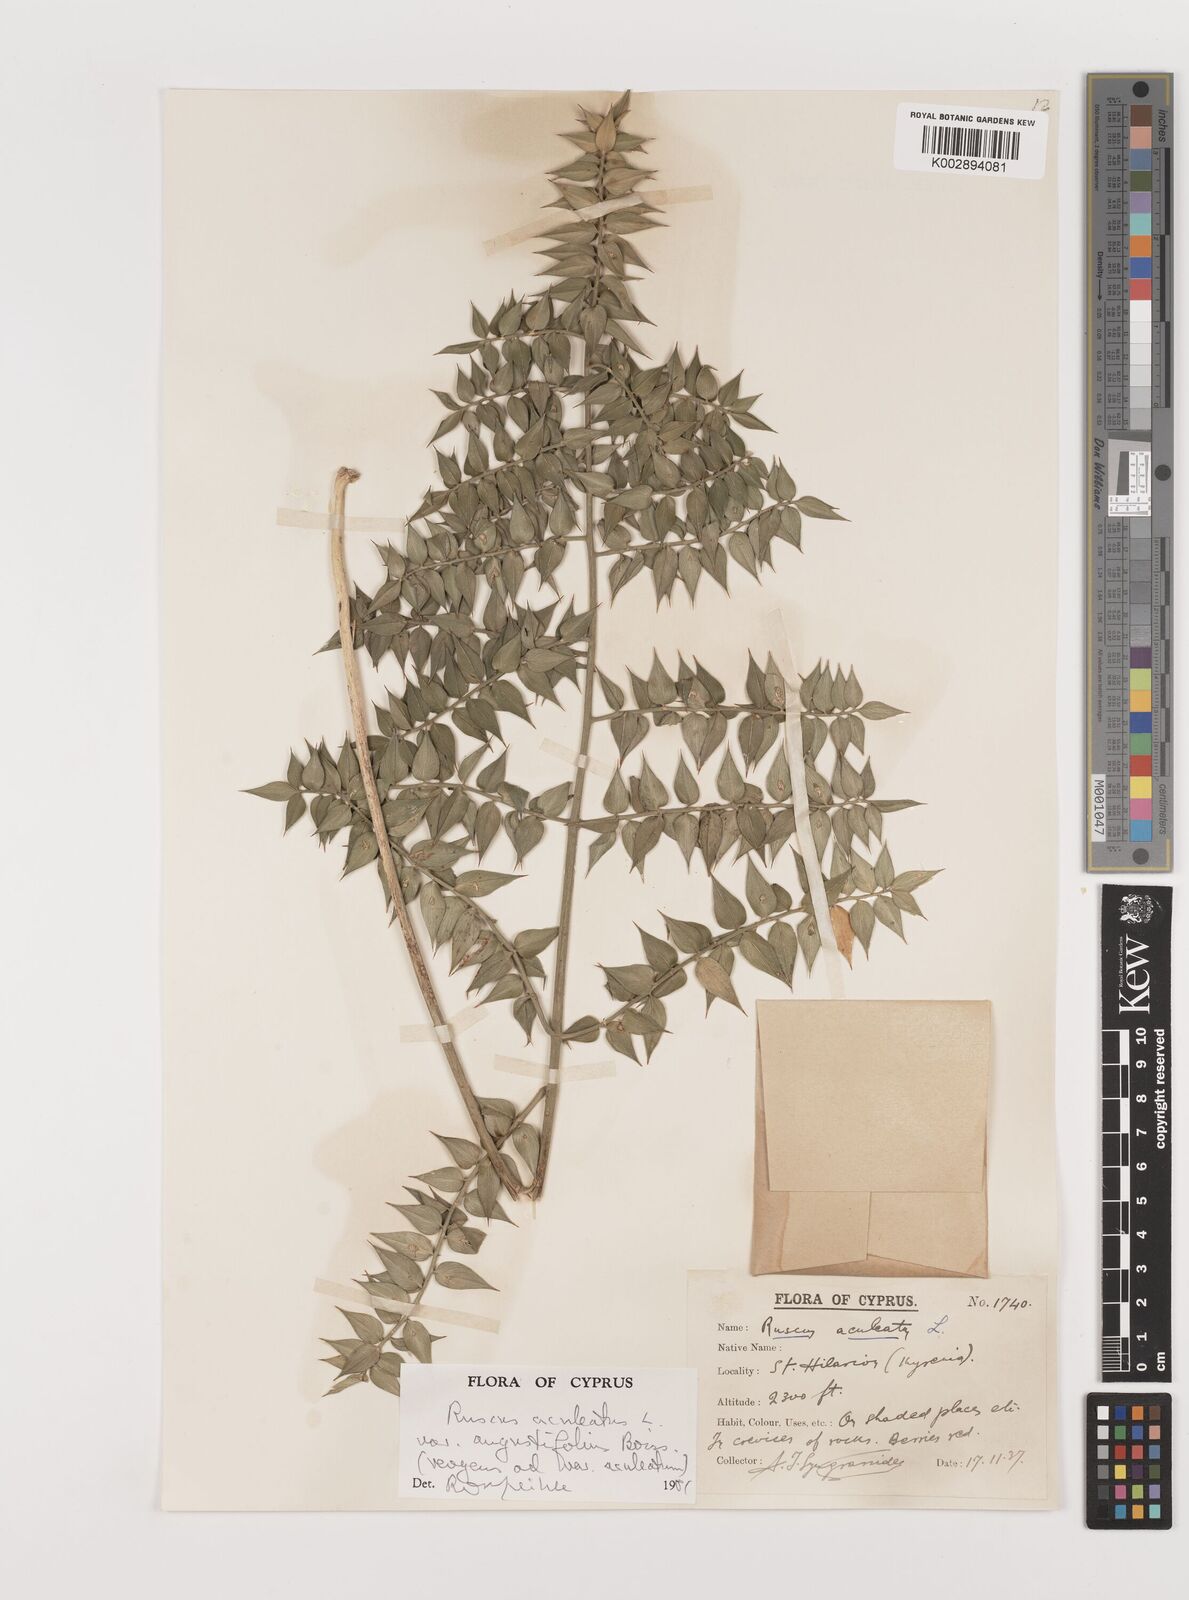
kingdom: Plantae
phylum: Tracheophyta
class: Liliopsida
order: Asparagales
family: Asparagaceae
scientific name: Asparagaceae
